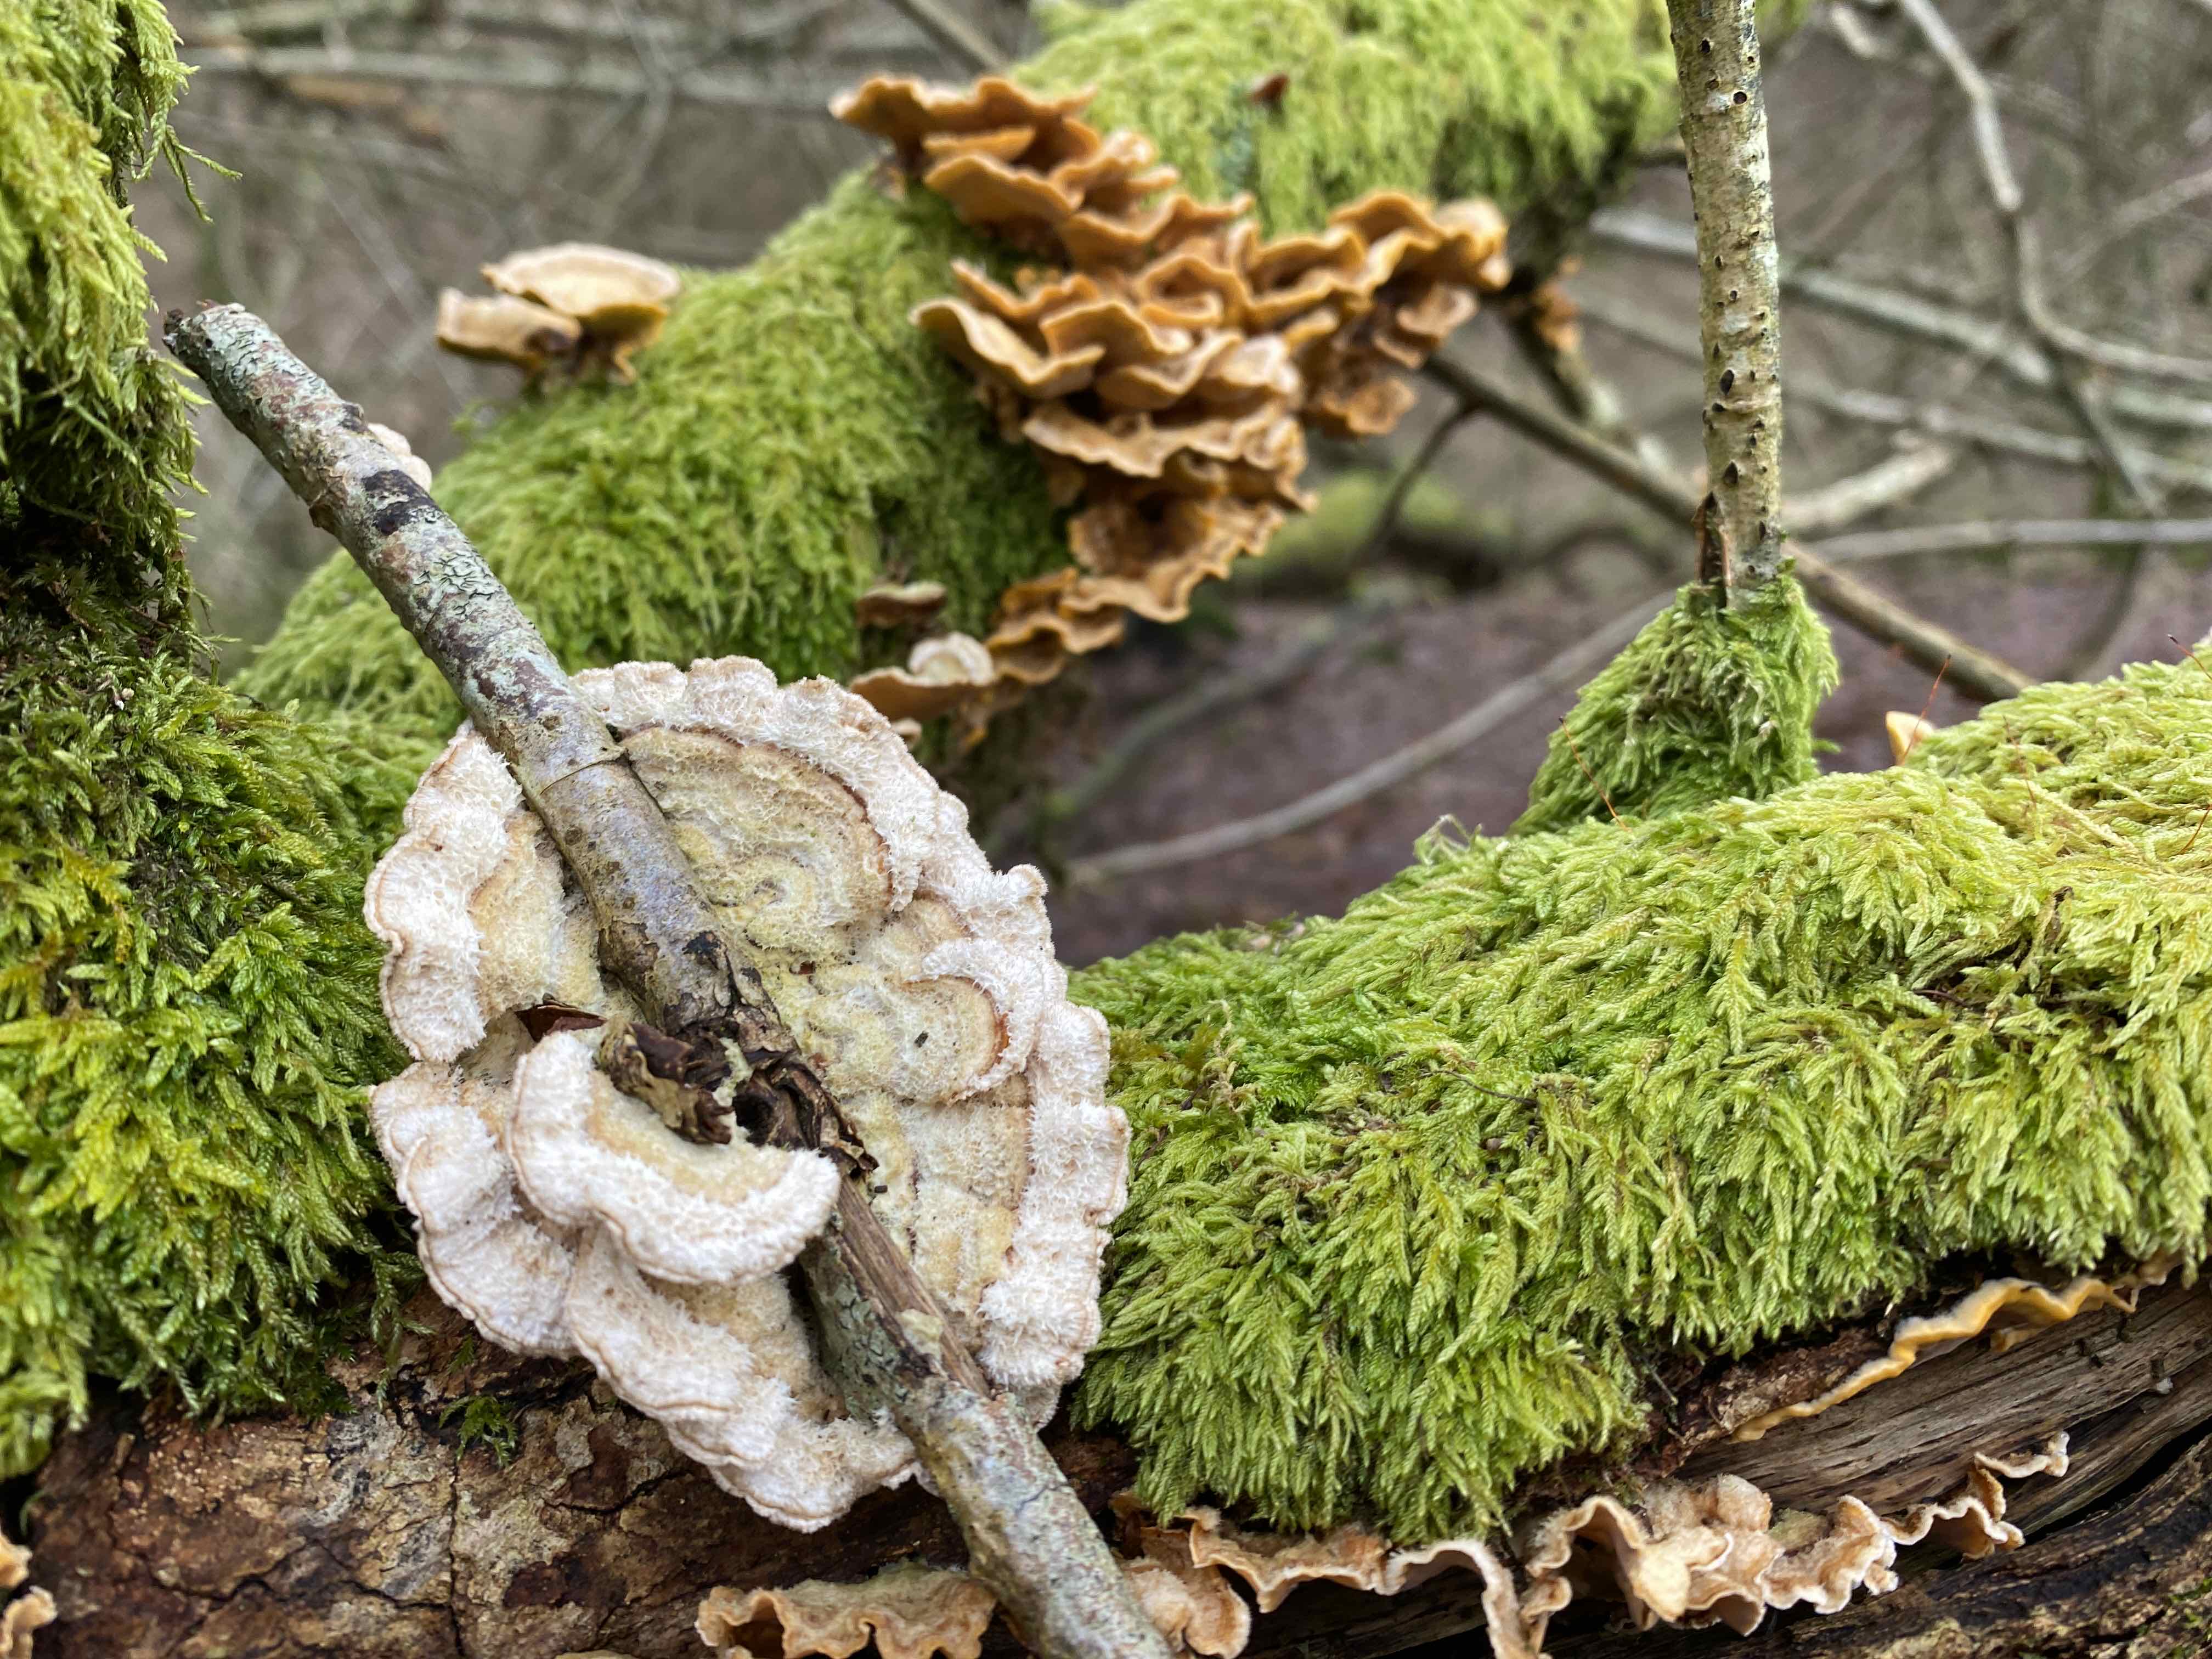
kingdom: Fungi
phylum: Basidiomycota
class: Agaricomycetes
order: Russulales
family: Stereaceae
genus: Stereum
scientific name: Stereum hirsutum
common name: håret lædersvamp
